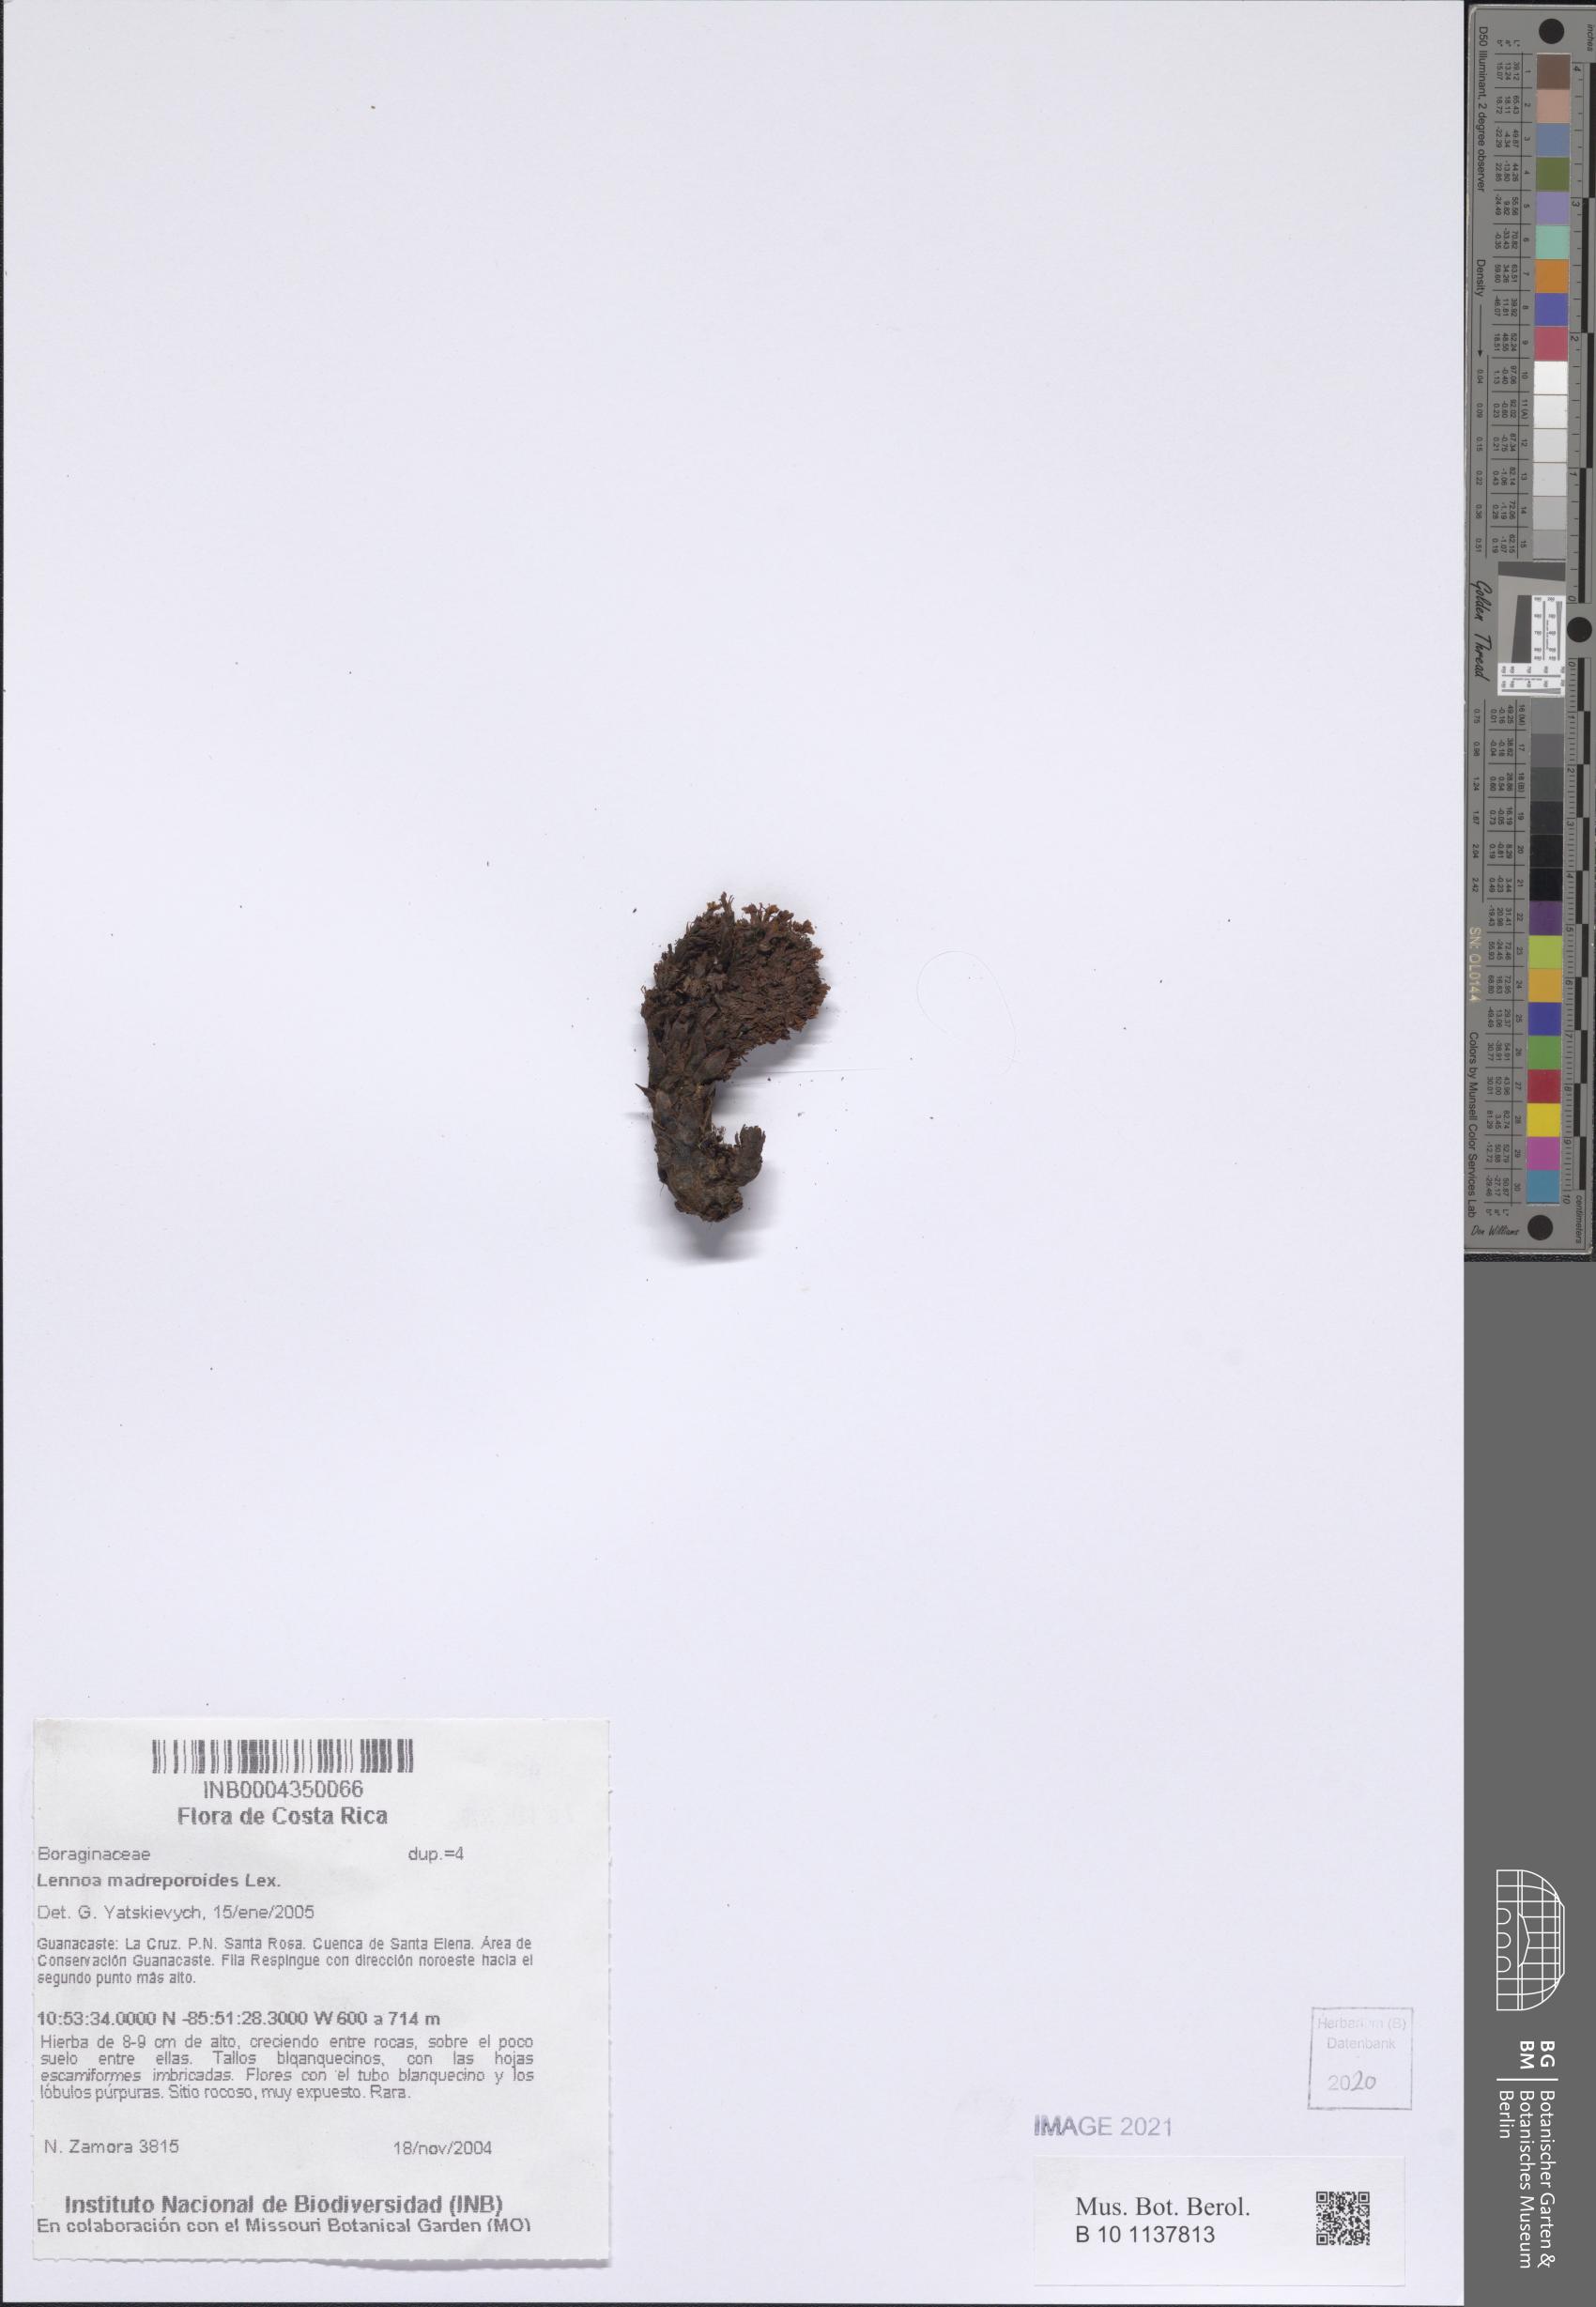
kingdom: Plantae
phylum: Tracheophyta
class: Magnoliopsida
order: Boraginales
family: Lennoaceae
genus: Lennoa
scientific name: Lennoa madreporoides
